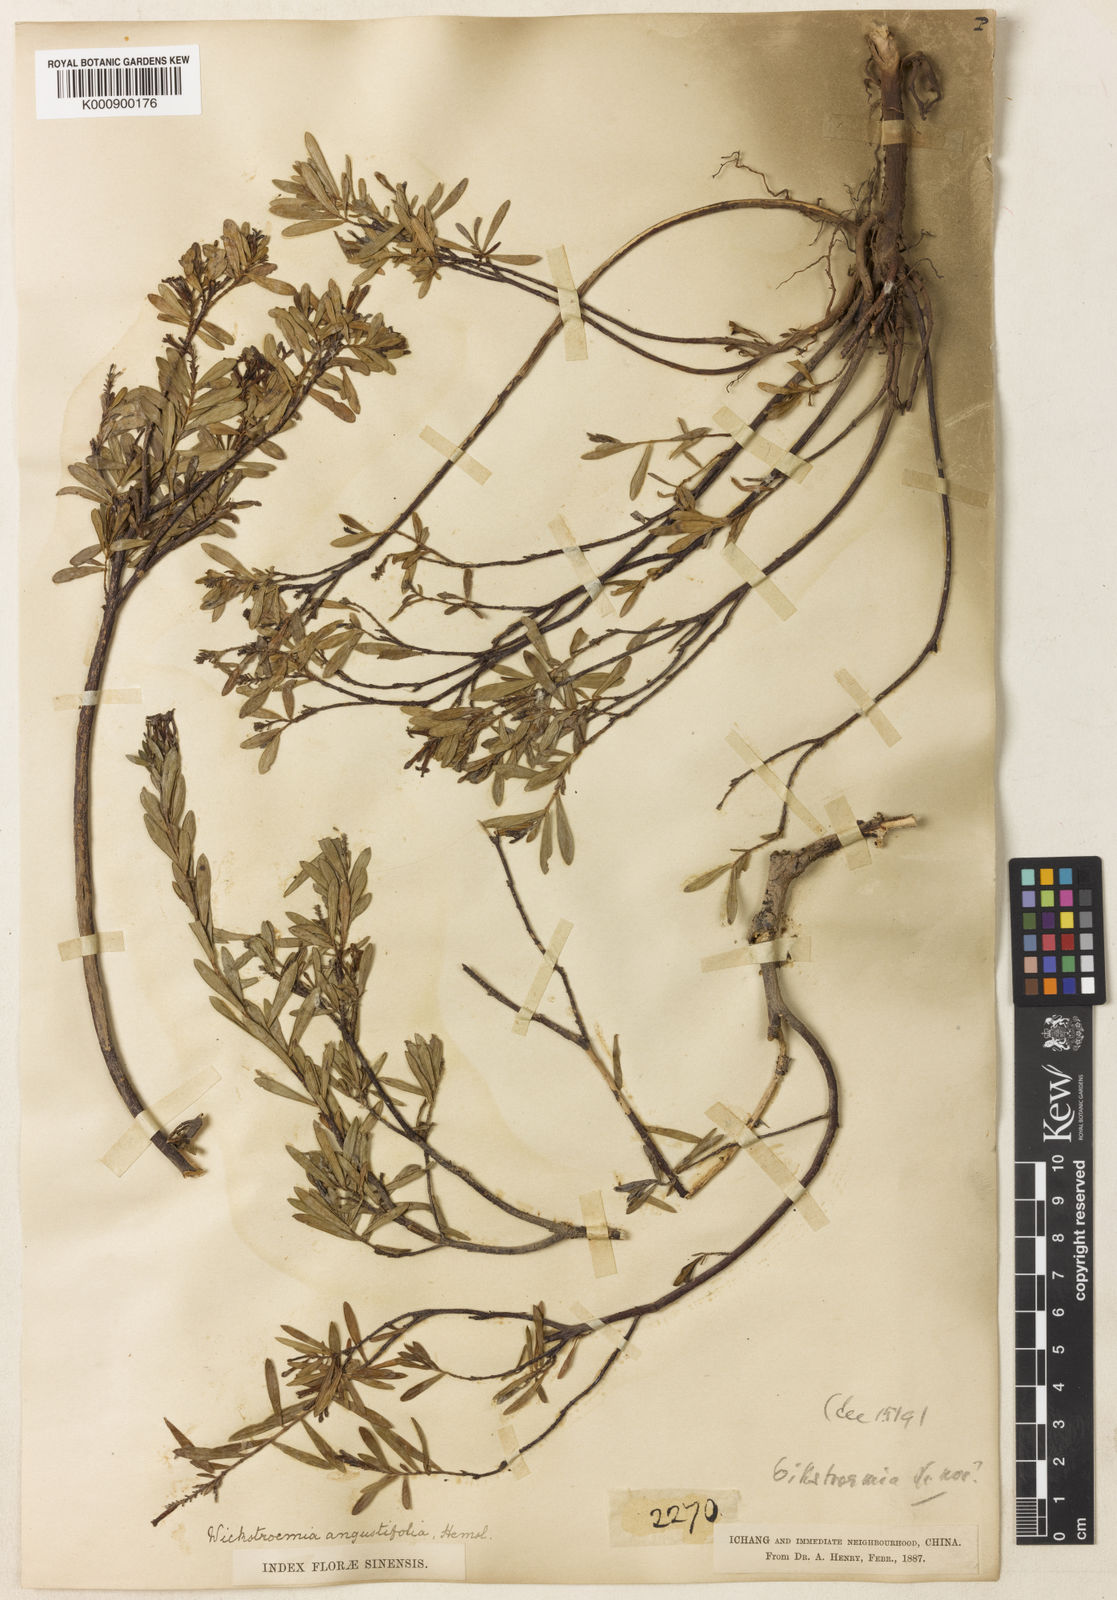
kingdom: Plantae
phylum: Tracheophyta
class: Magnoliopsida
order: Malvales
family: Thymelaeaceae
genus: Wikstroemia
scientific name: Wikstroemia angustifolia
